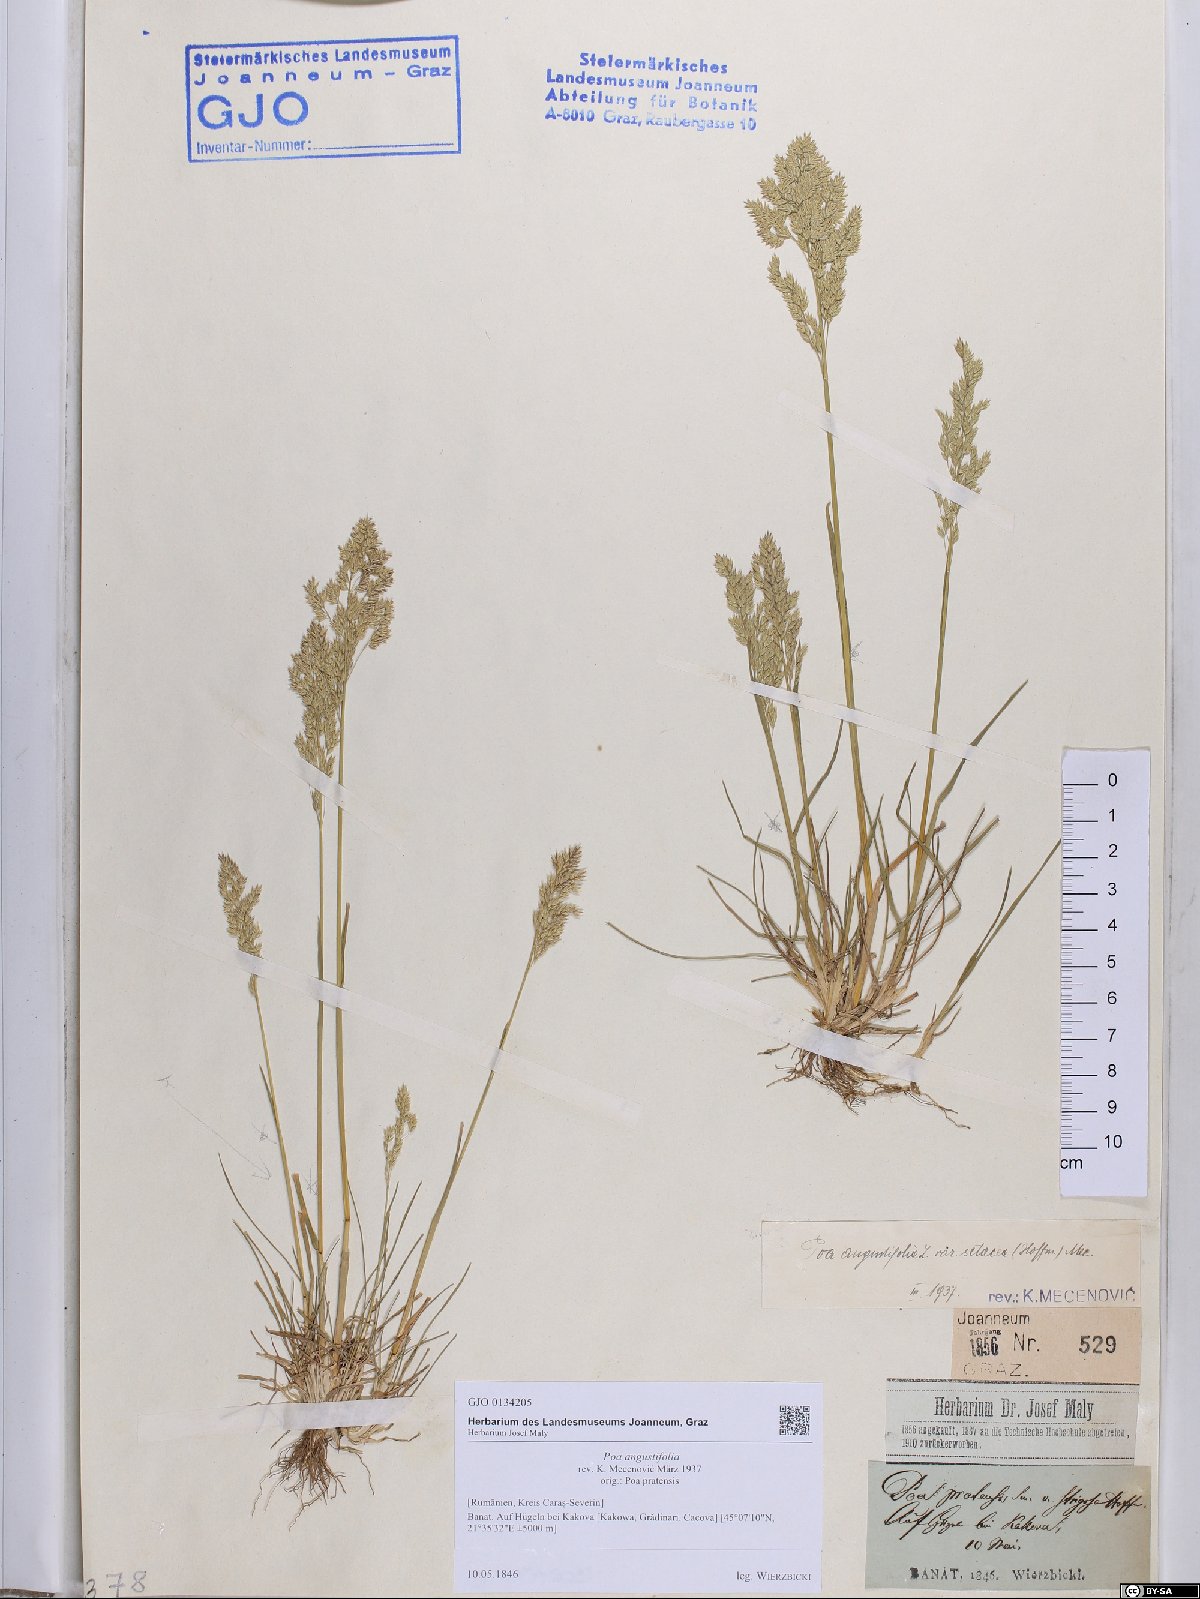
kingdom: Plantae
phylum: Tracheophyta
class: Liliopsida
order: Poales
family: Poaceae
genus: Poa
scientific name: Poa angustifolia
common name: Narrow-leaved meadow-grass
